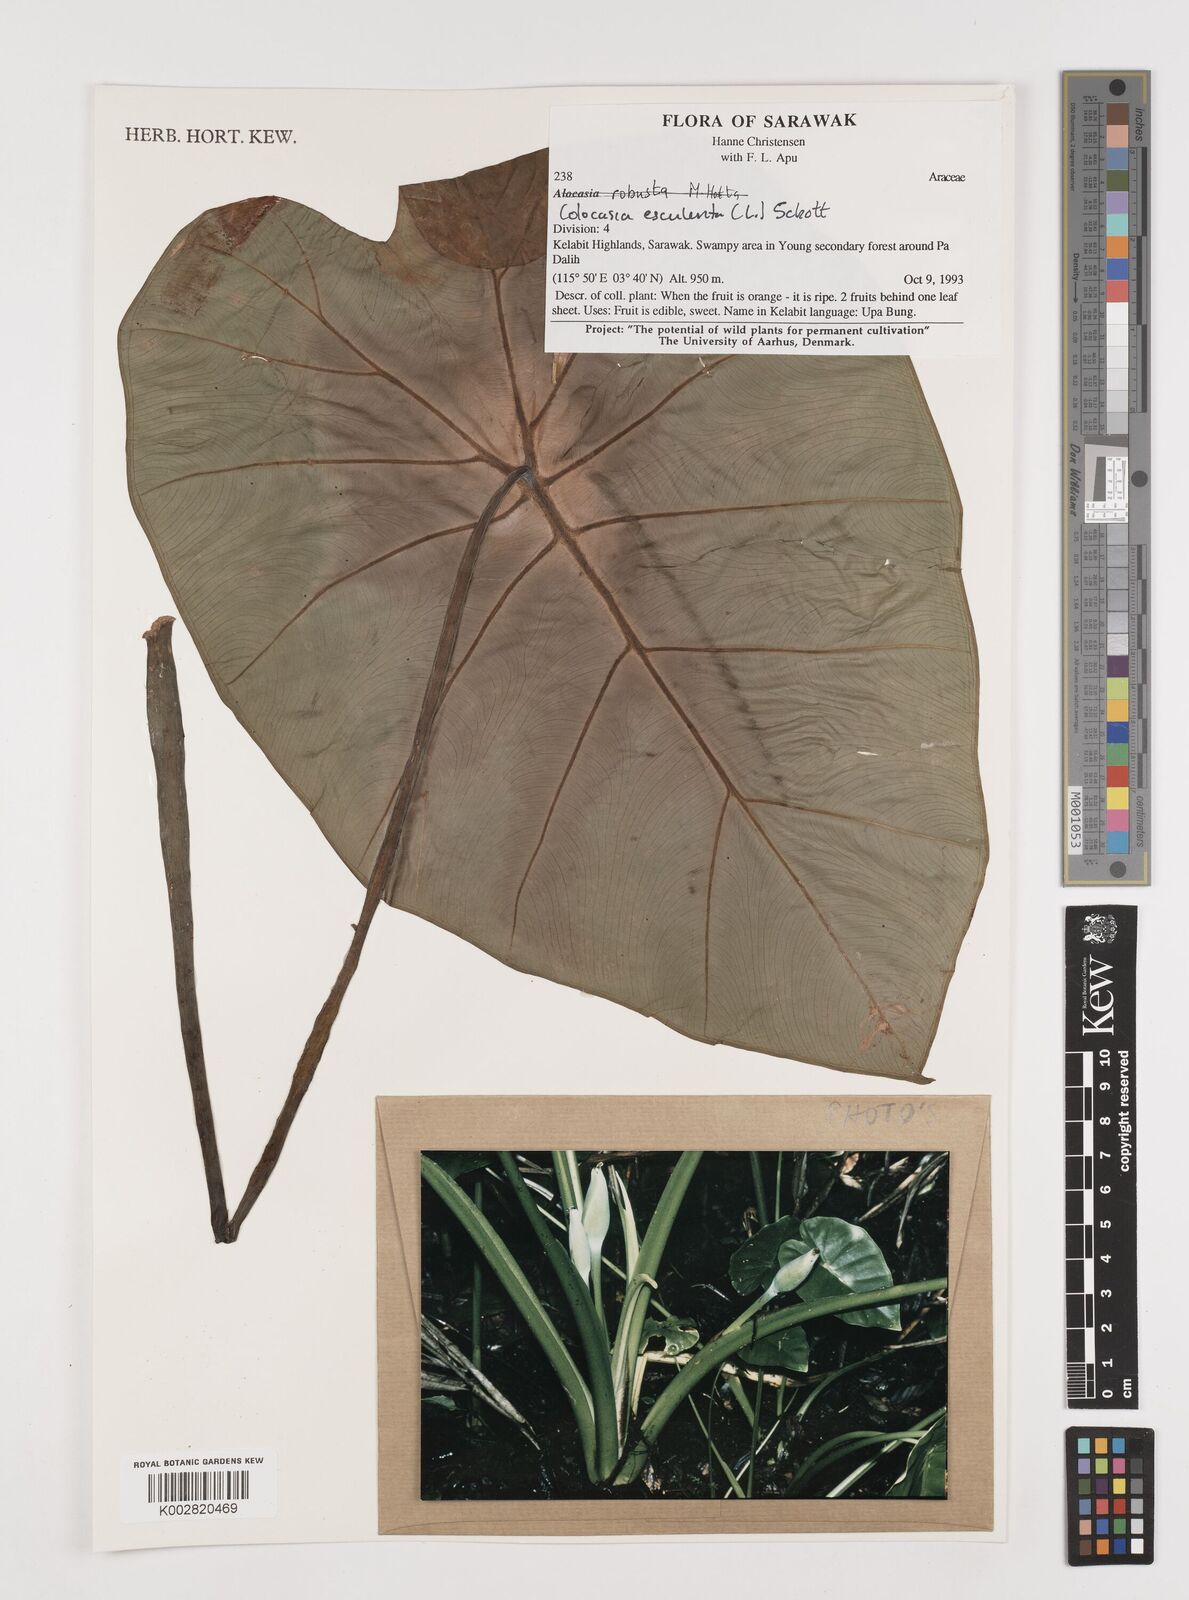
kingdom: Plantae
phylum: Tracheophyta
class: Liliopsida
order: Alismatales
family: Araceae
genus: Colocasia
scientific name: Colocasia esculenta
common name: Taro
